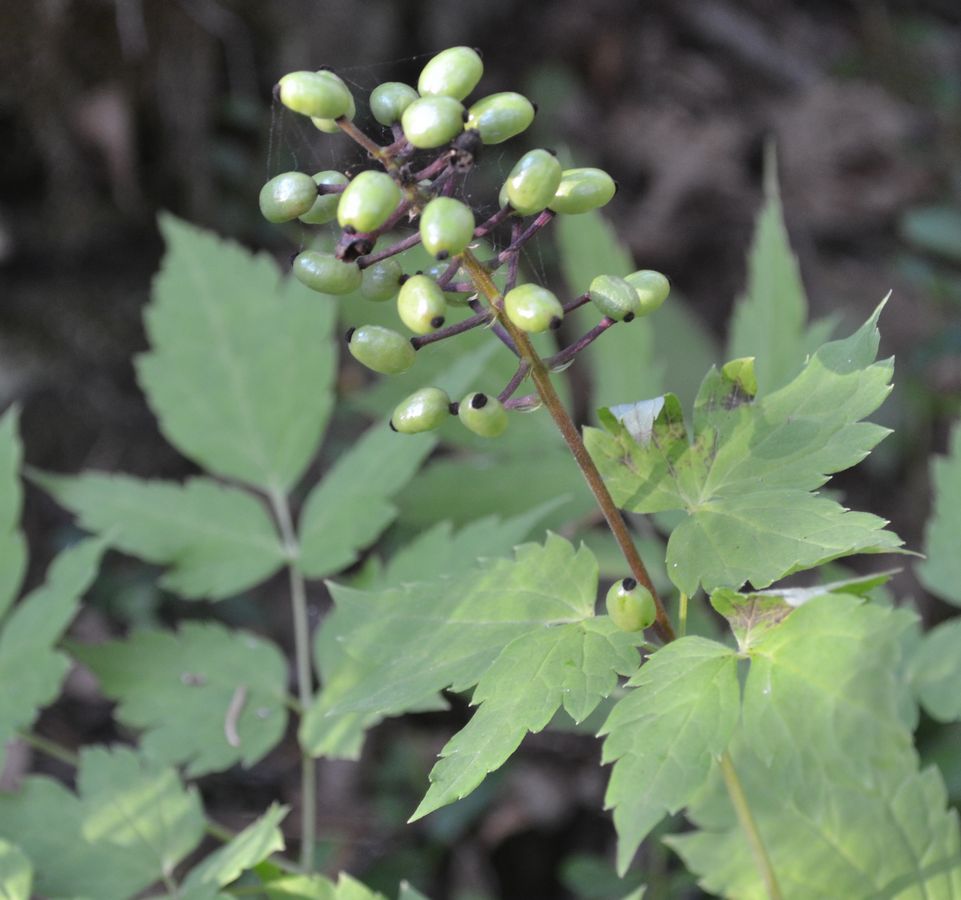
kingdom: Plantae
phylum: Tracheophyta
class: Magnoliopsida
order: Ranunculales
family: Ranunculaceae
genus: Actaea
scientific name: Actaea erythrocarpa
